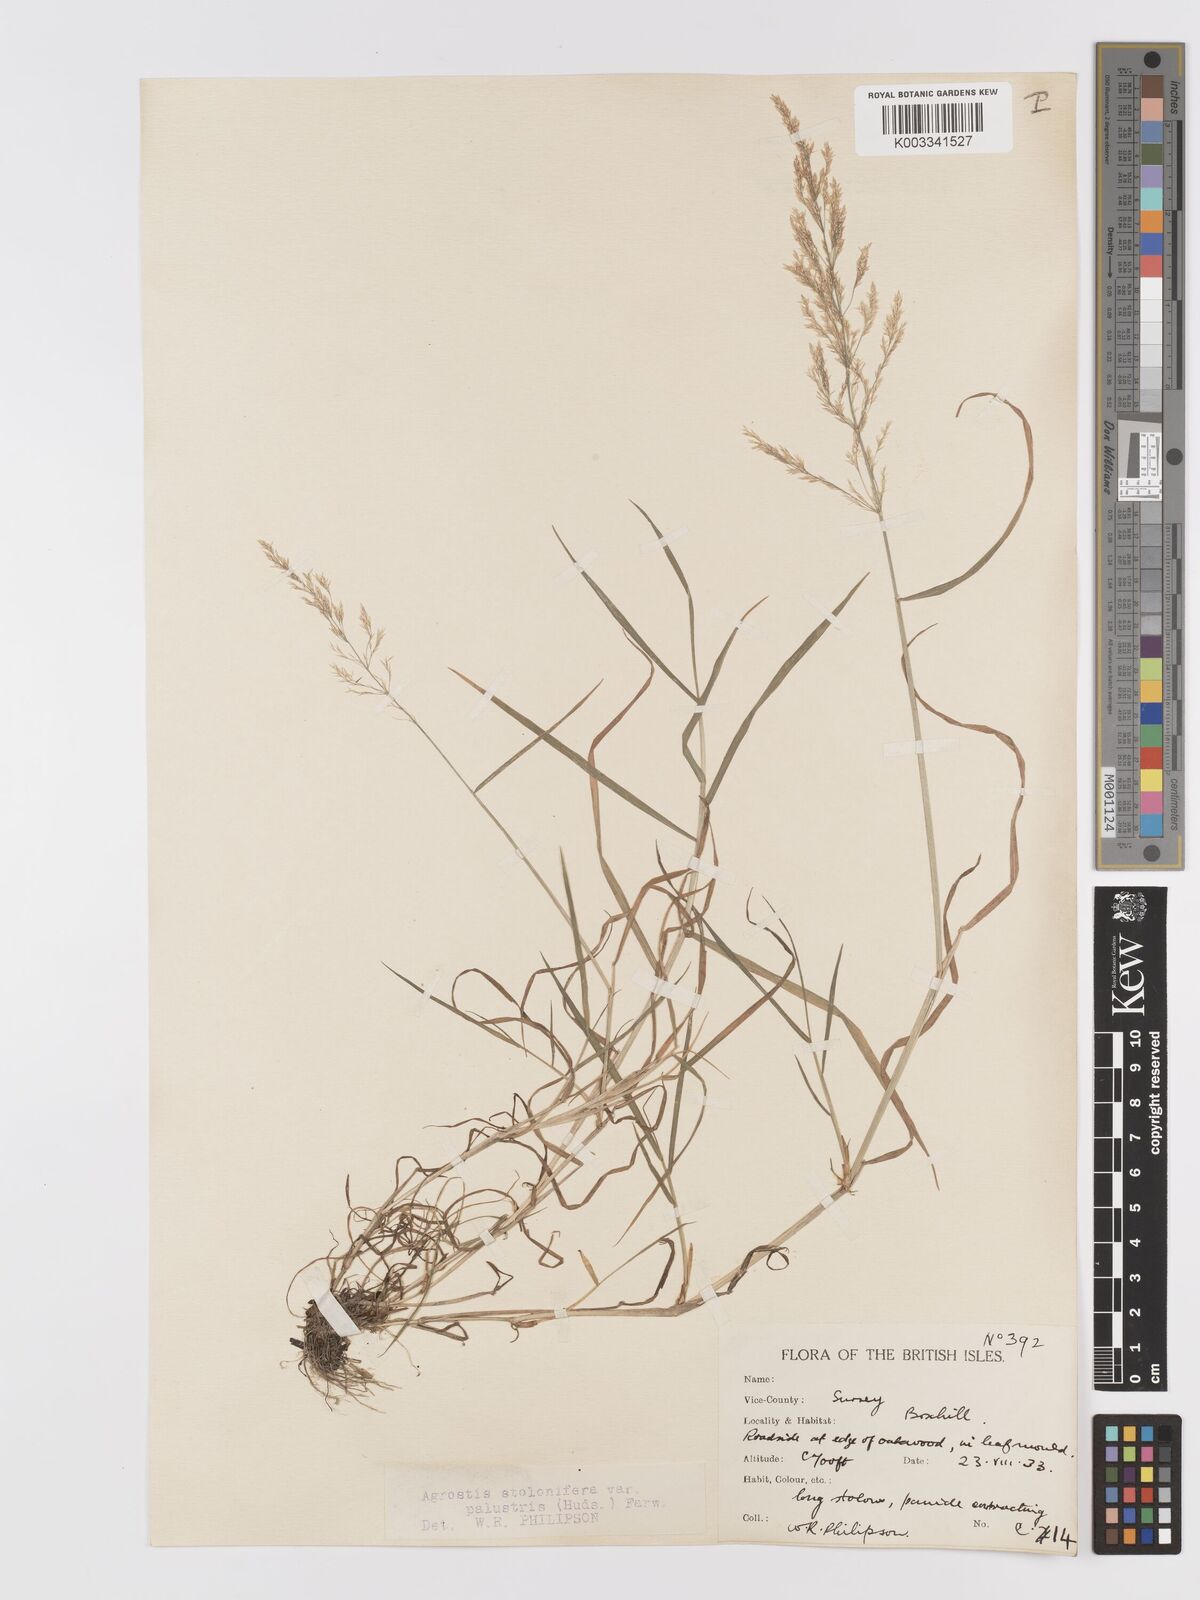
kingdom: Plantae
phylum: Tracheophyta
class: Liliopsida
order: Poales
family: Poaceae
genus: Agrostis
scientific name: Agrostis stolonifera
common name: Creeping bentgrass
